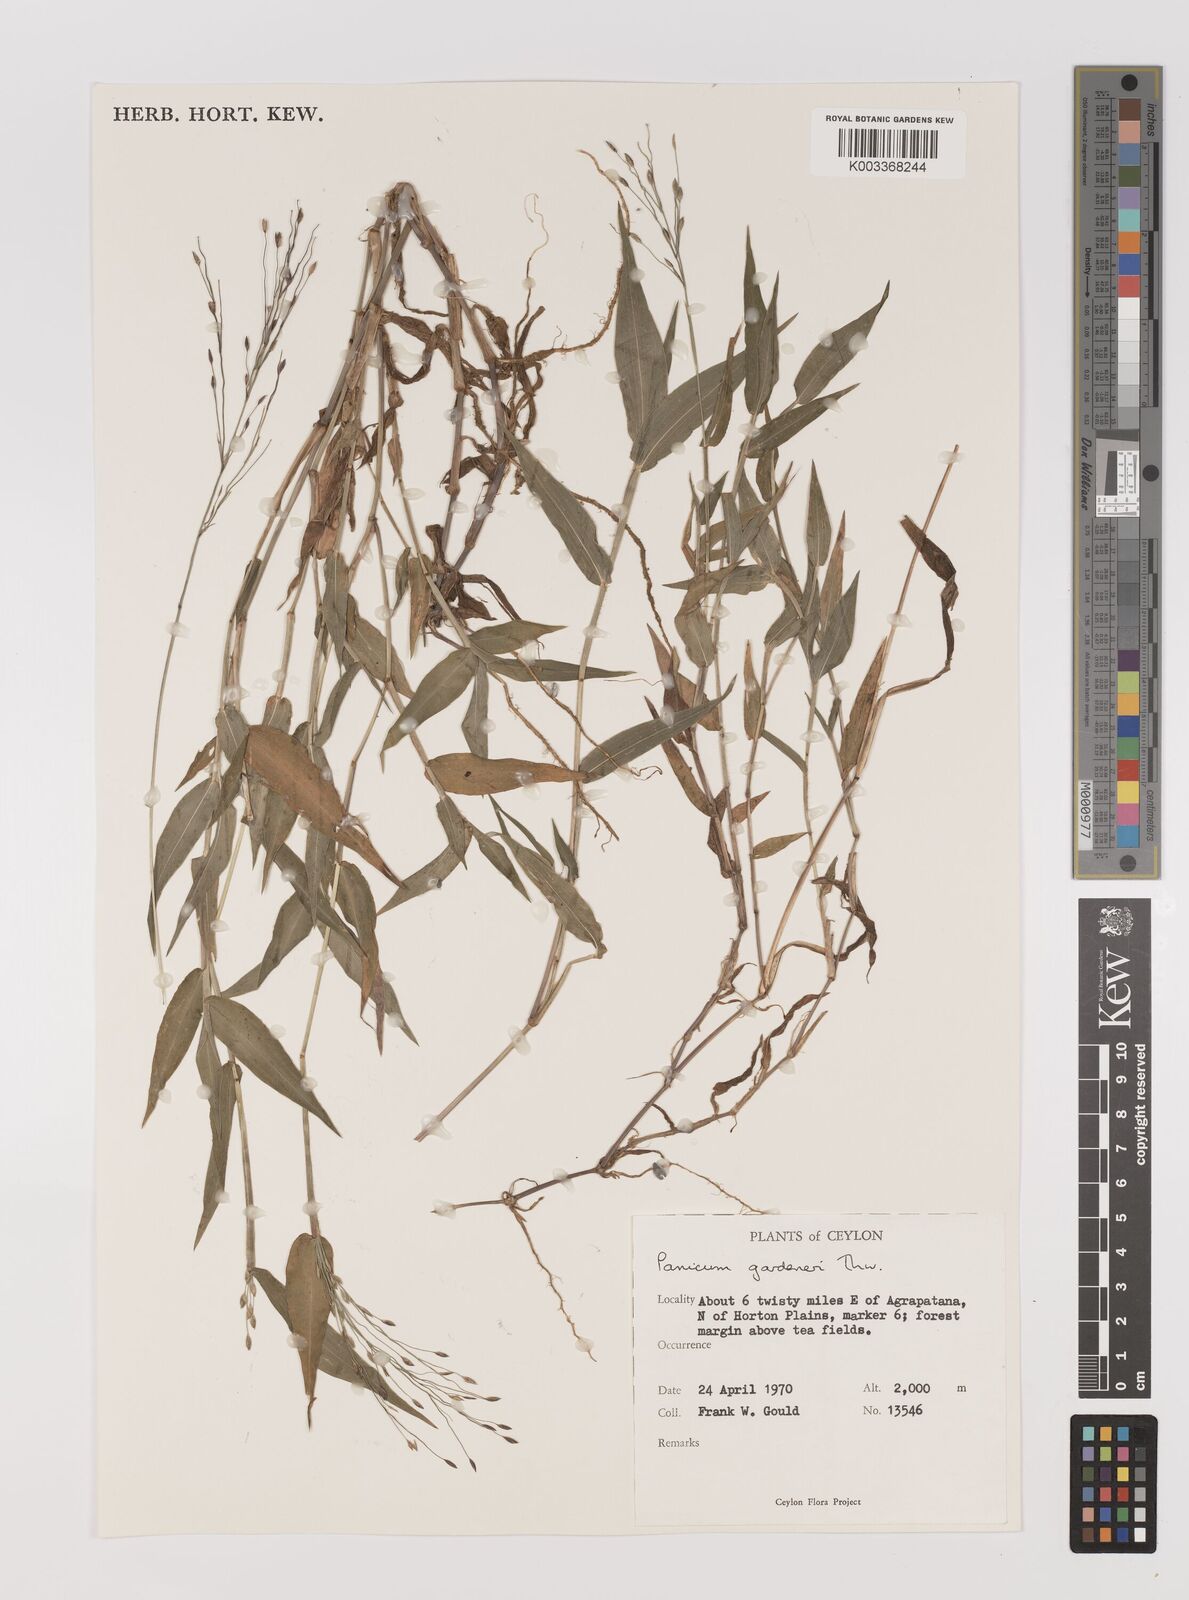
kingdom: Plantae
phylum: Tracheophyta
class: Liliopsida
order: Poales
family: Poaceae
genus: Panicum
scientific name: Panicum gardneri
